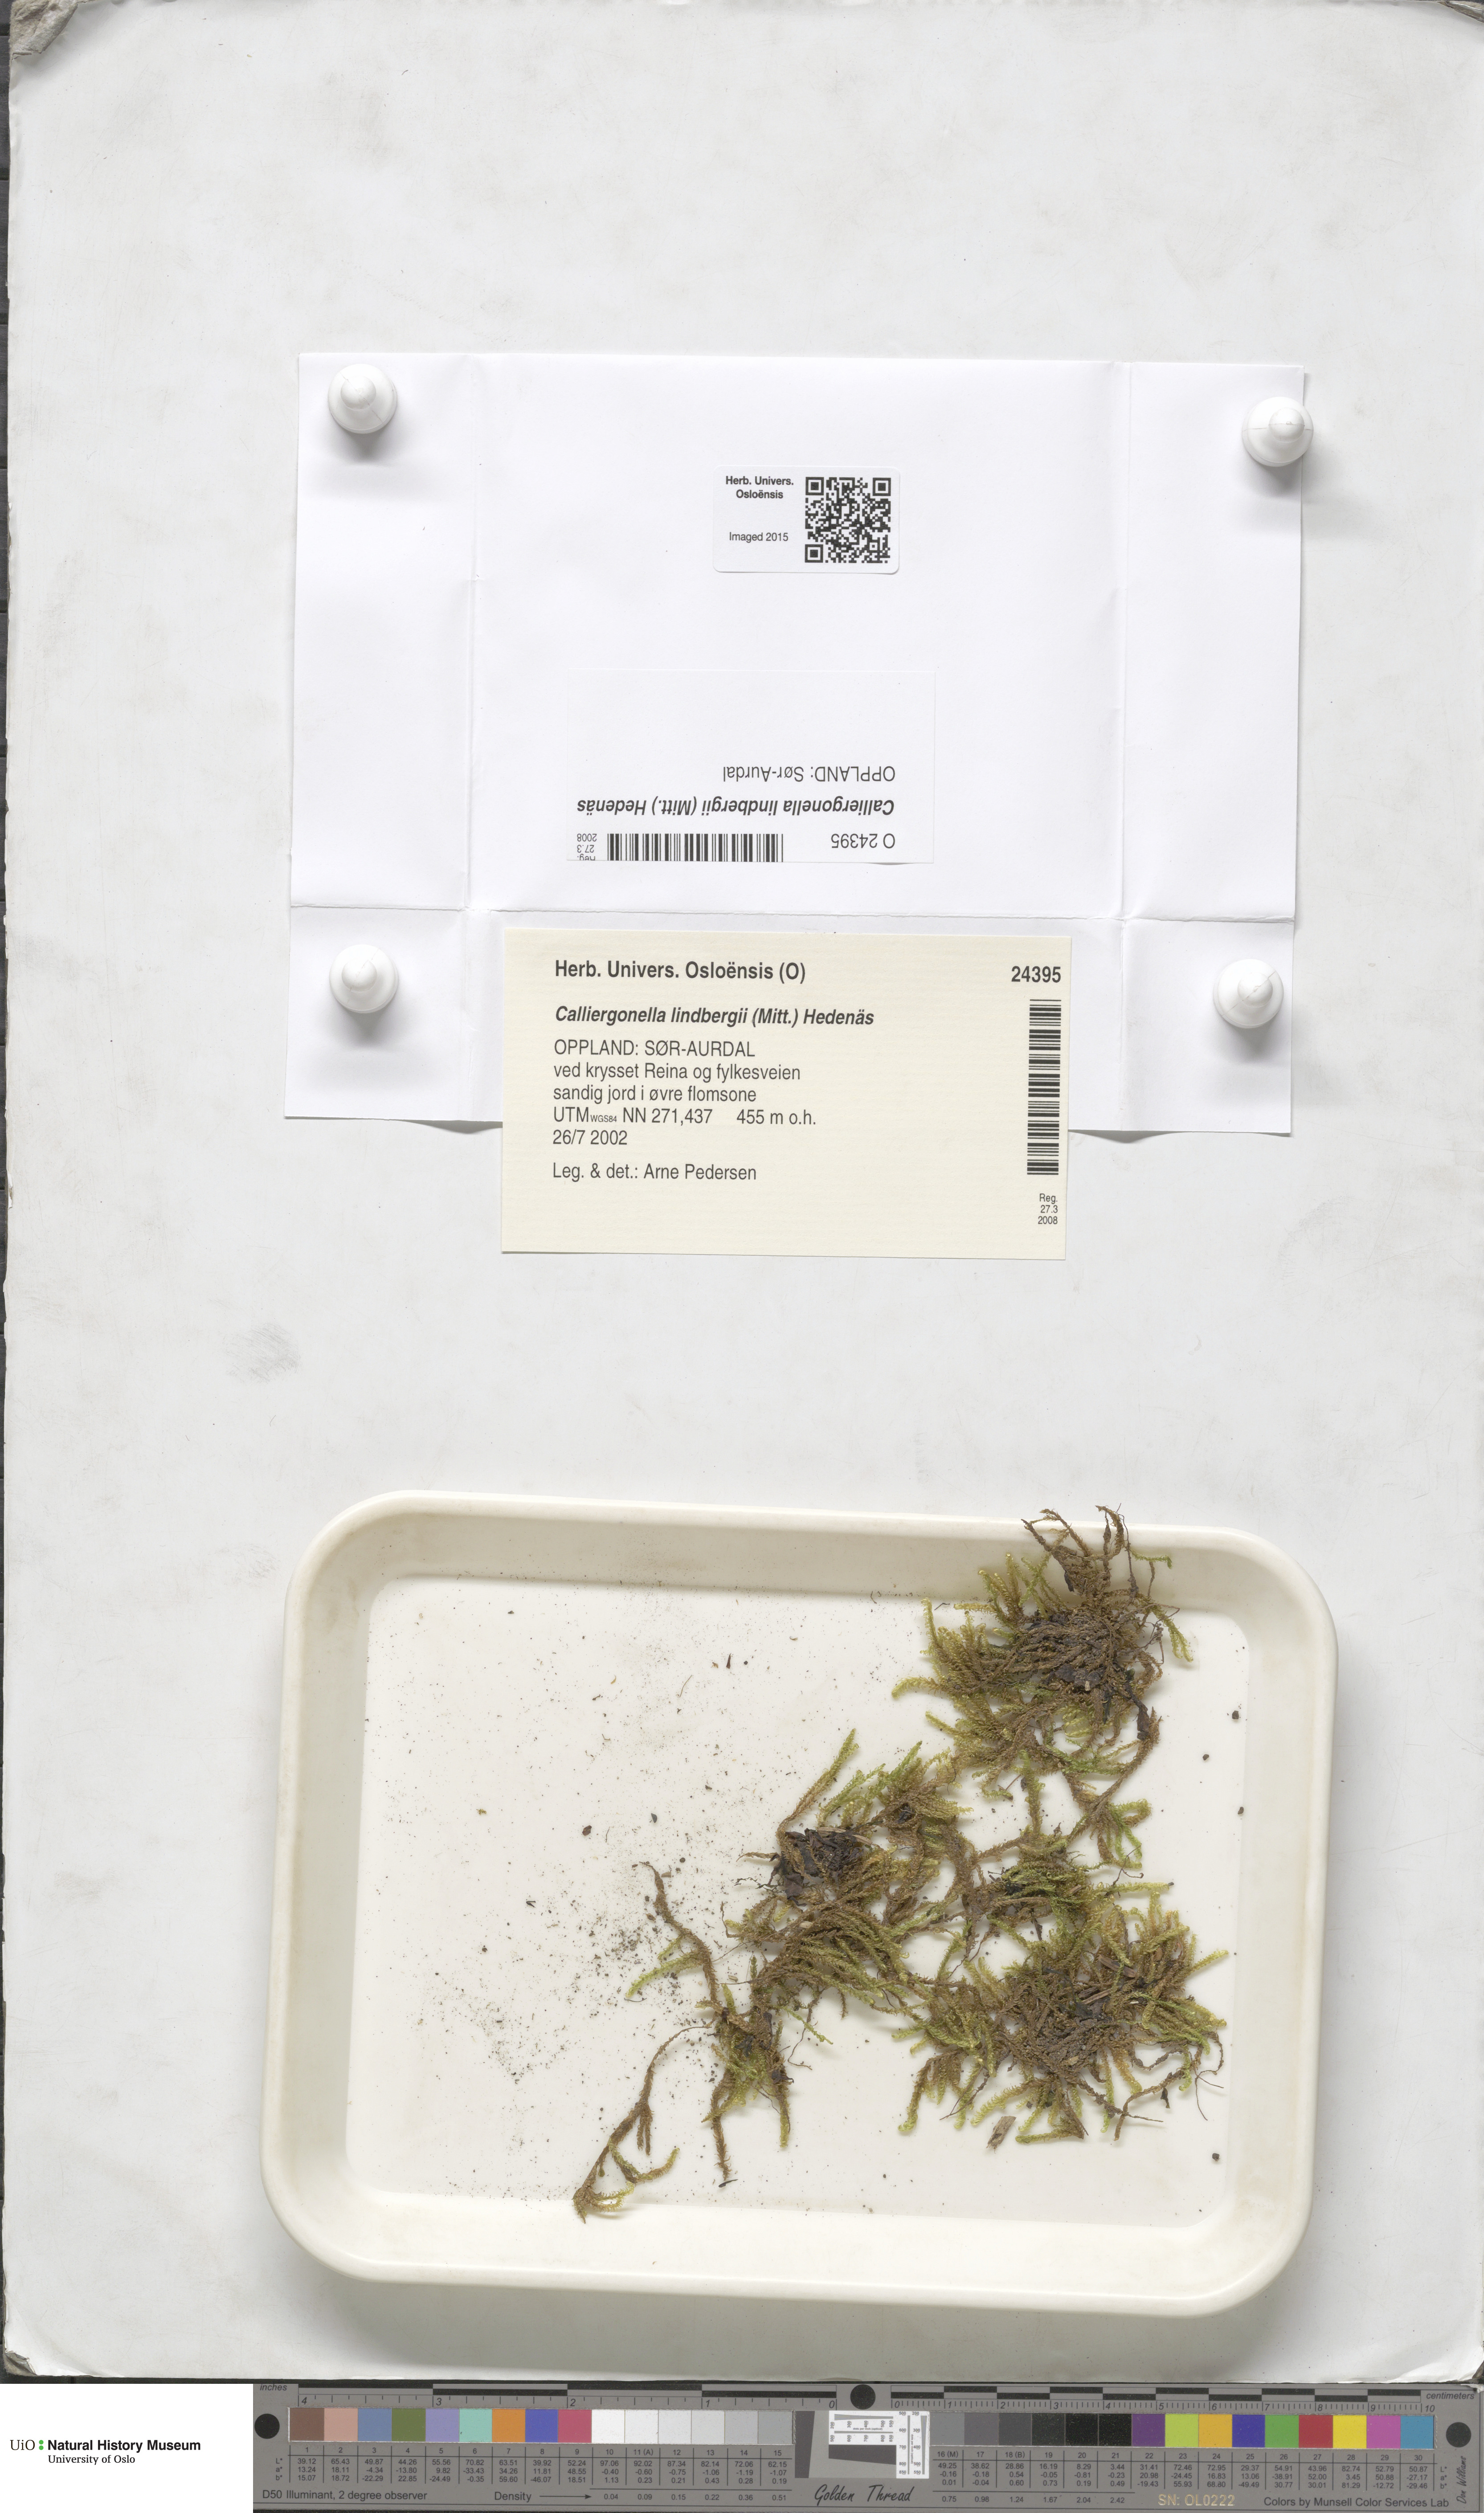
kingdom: Plantae
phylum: Bryophyta
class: Bryopsida
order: Hypnales
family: Pylaisiaceae
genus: Calliergonella
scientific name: Calliergonella lindbergii
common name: Lindberg's plait-moss
